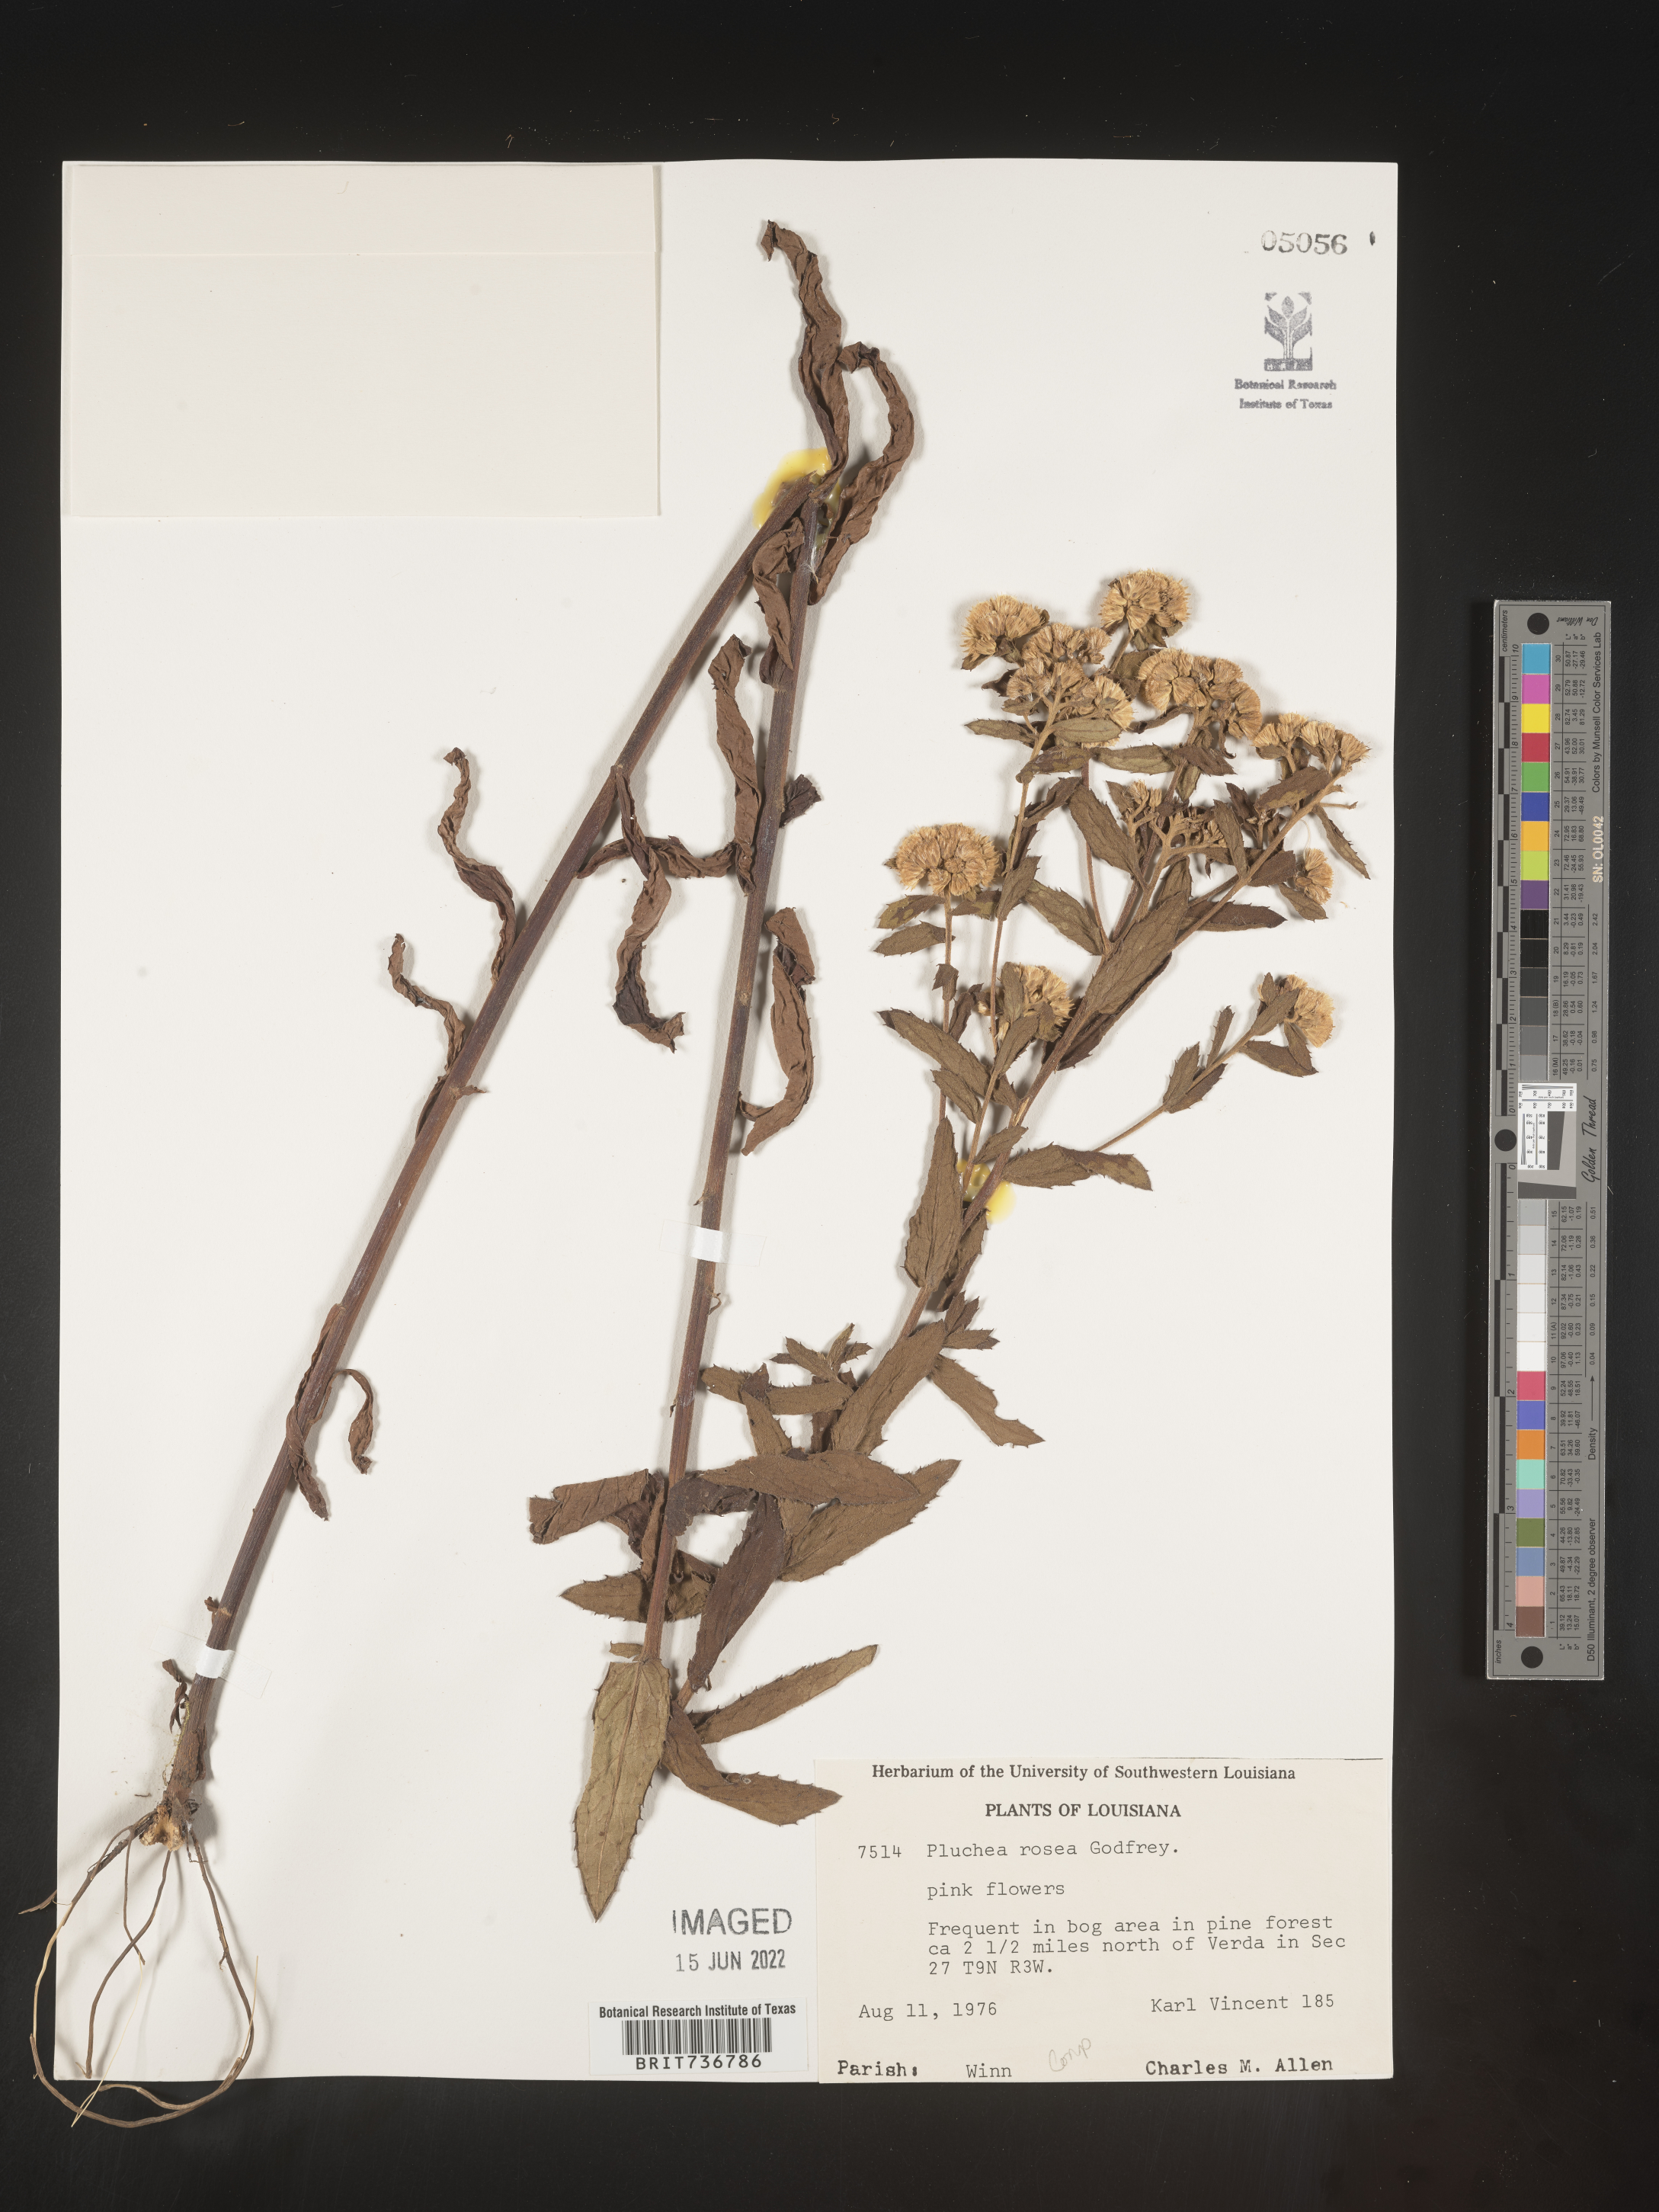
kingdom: Plantae
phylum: Tracheophyta
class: Magnoliopsida
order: Asterales
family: Asteraceae
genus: Pluchea
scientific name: Pluchea baccharis
